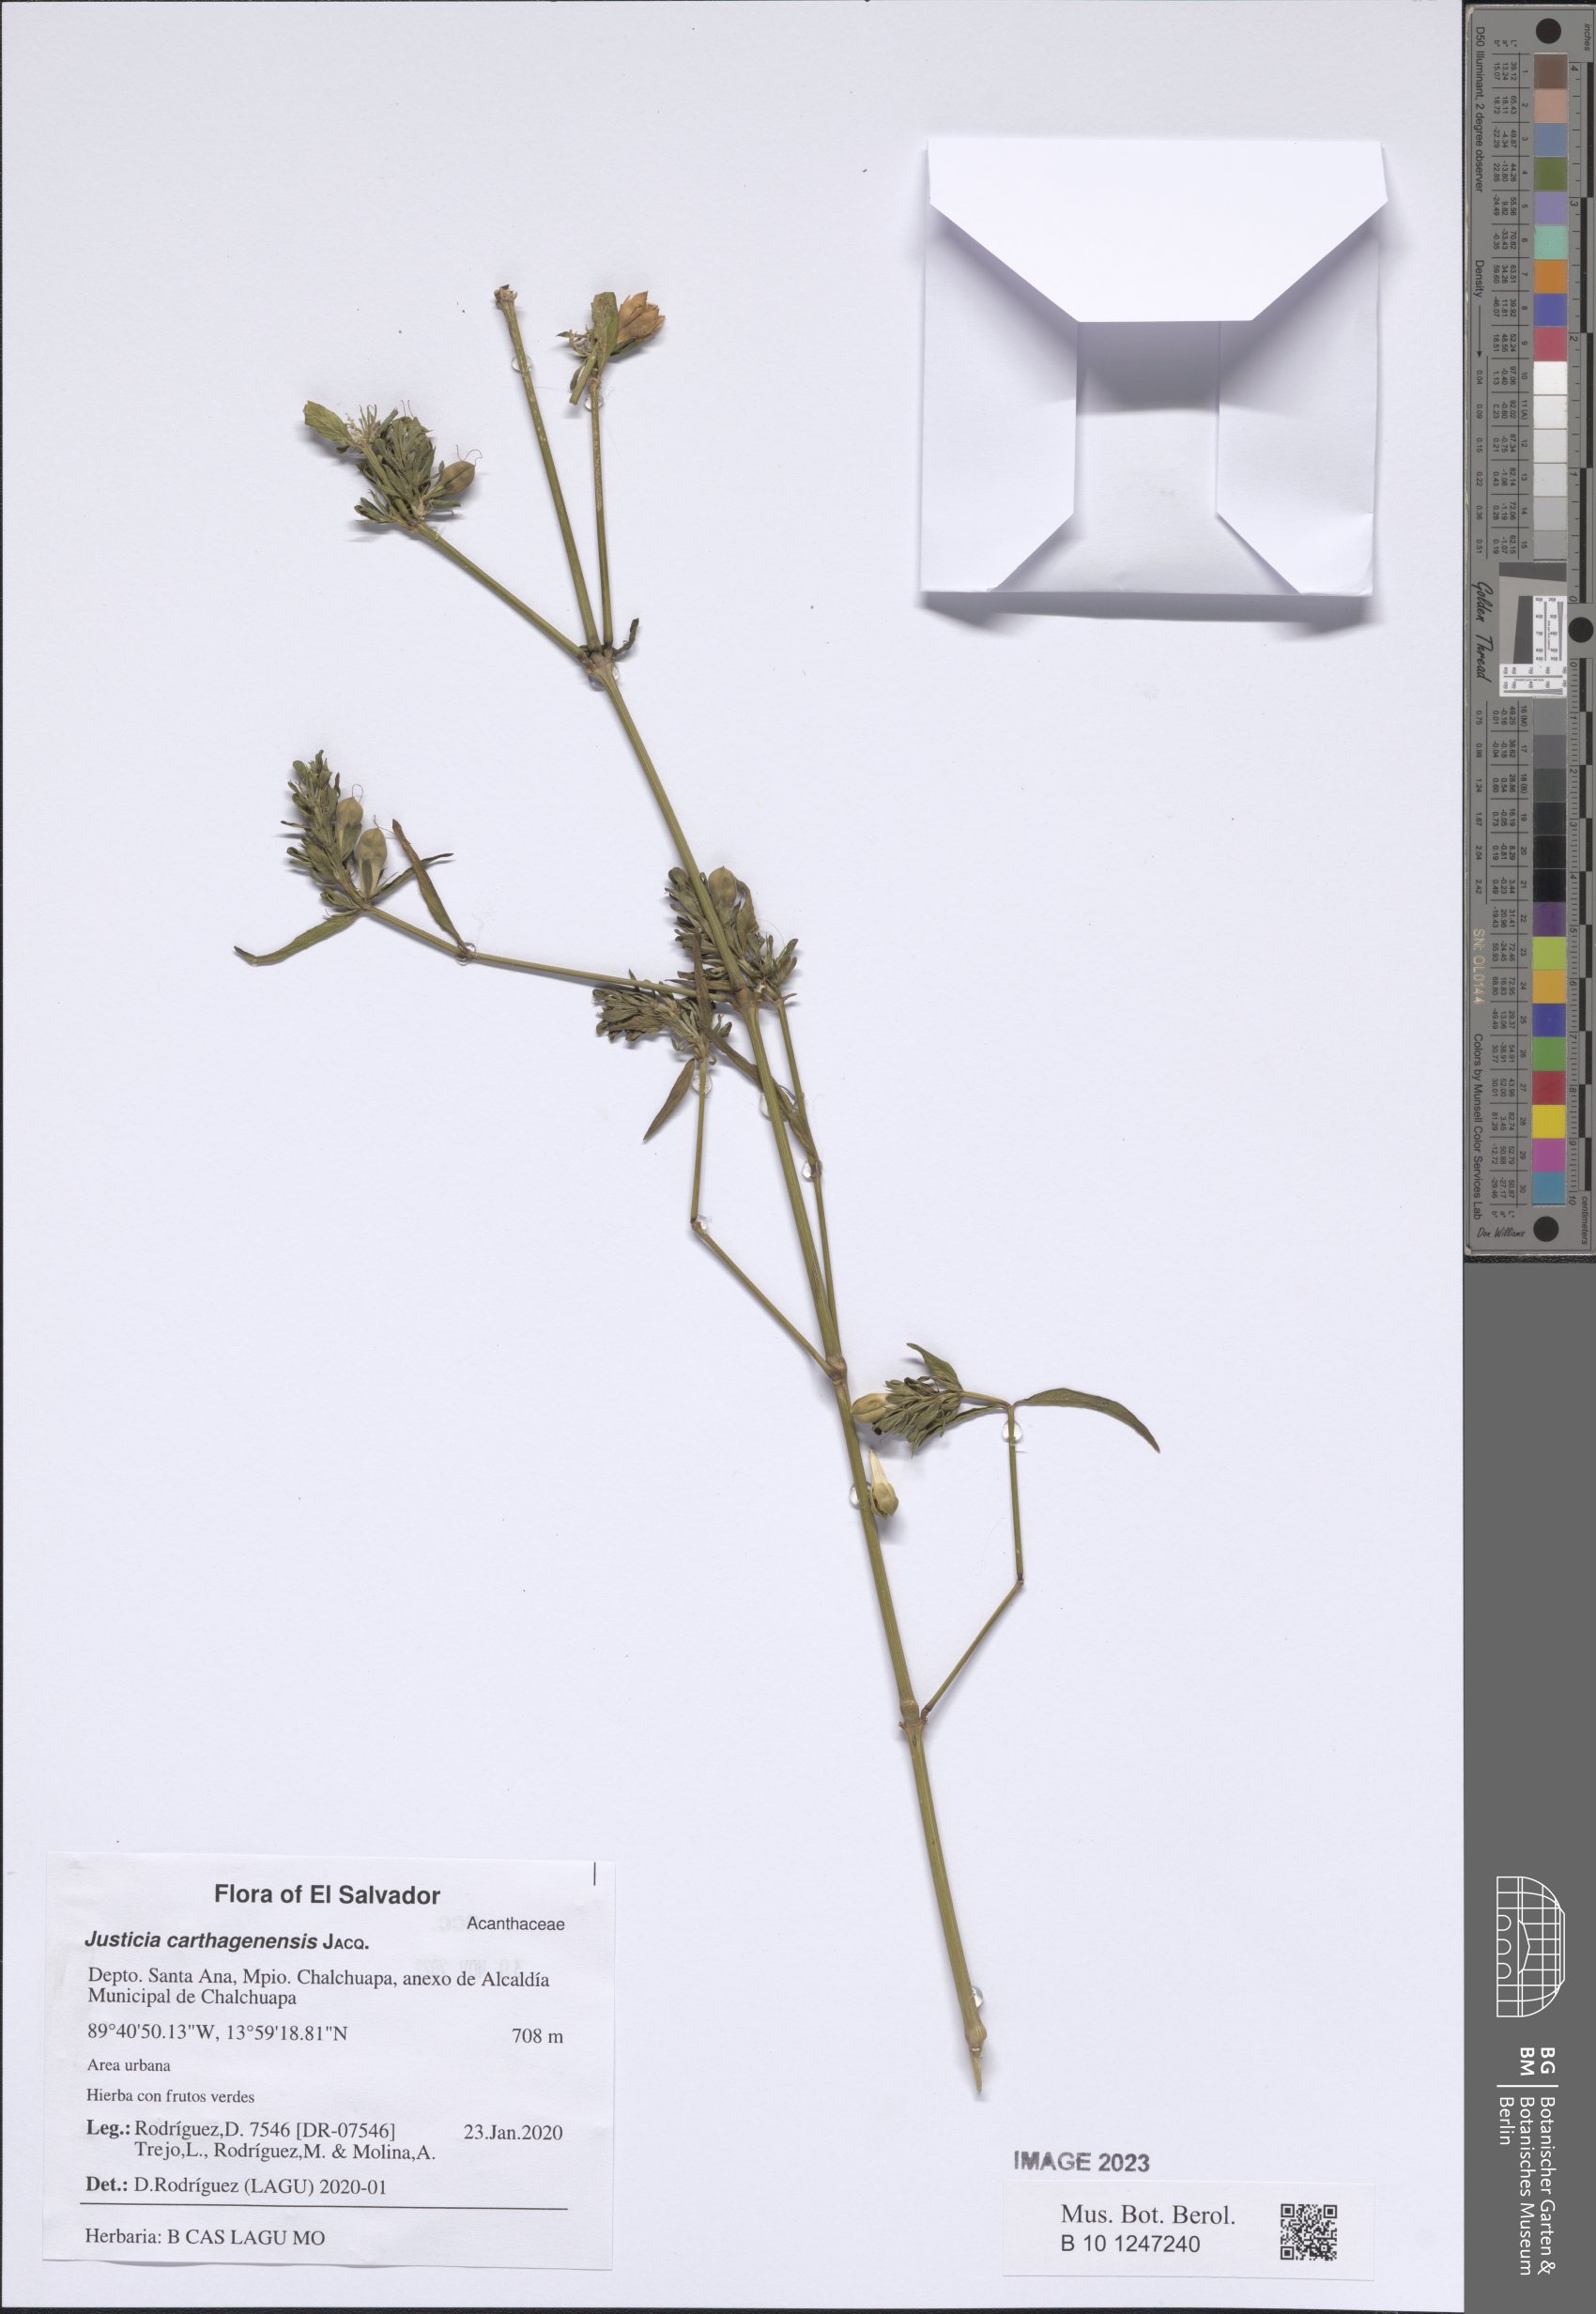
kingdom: Plantae
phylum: Tracheophyta
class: Magnoliopsida
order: Lamiales
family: Acanthaceae
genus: Justicia
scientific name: Justicia carthagenensis
